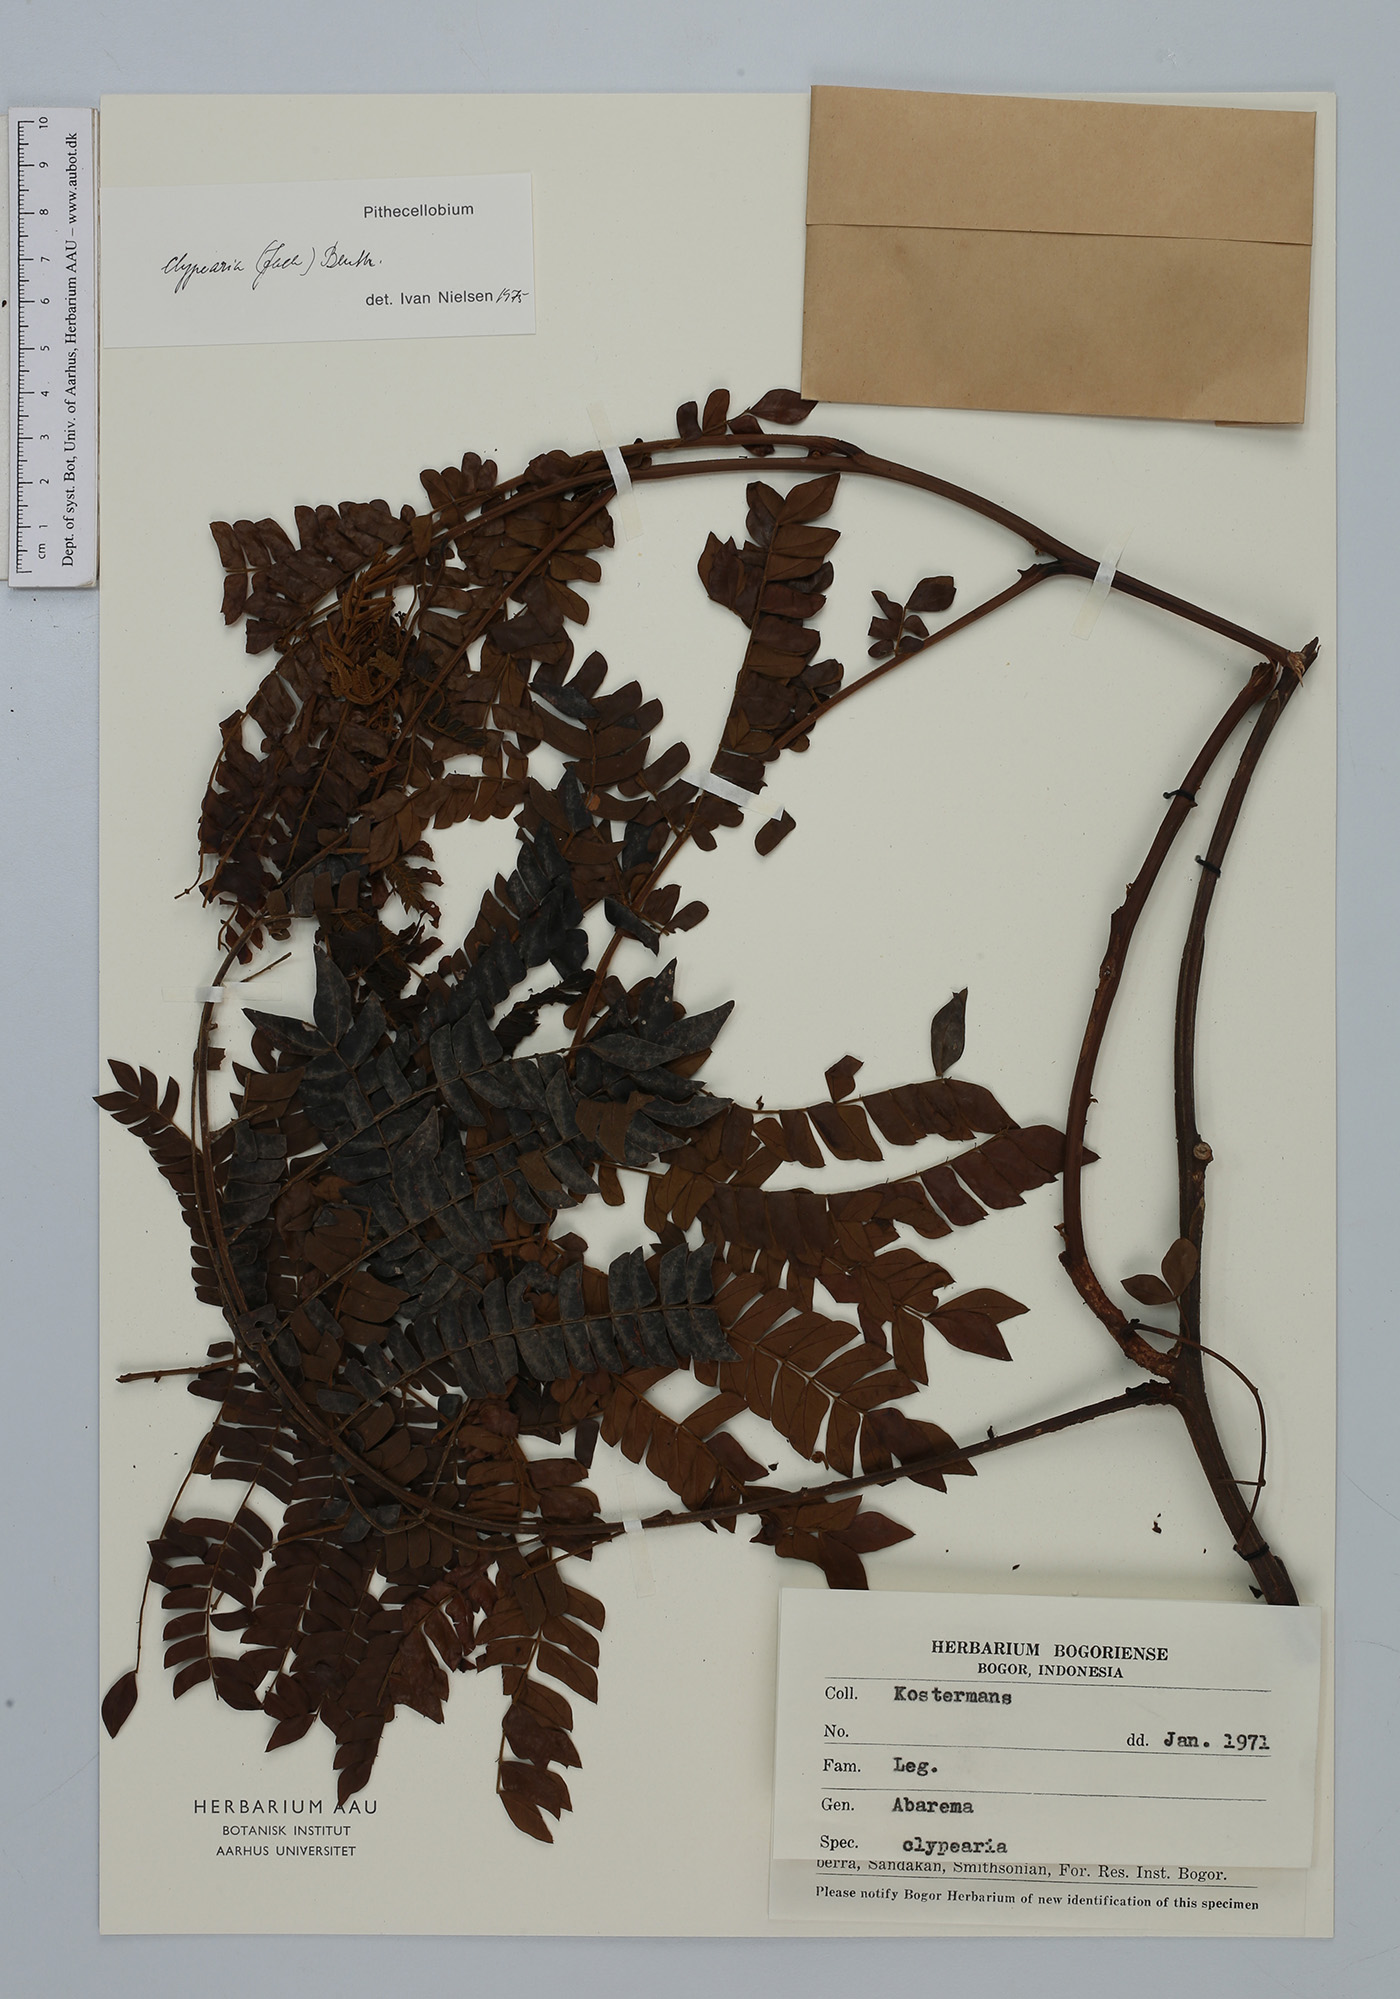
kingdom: Plantae
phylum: Tracheophyta
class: Magnoliopsida
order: Fabales
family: Fabaceae
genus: Archidendron
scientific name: Archidendron clypearia
